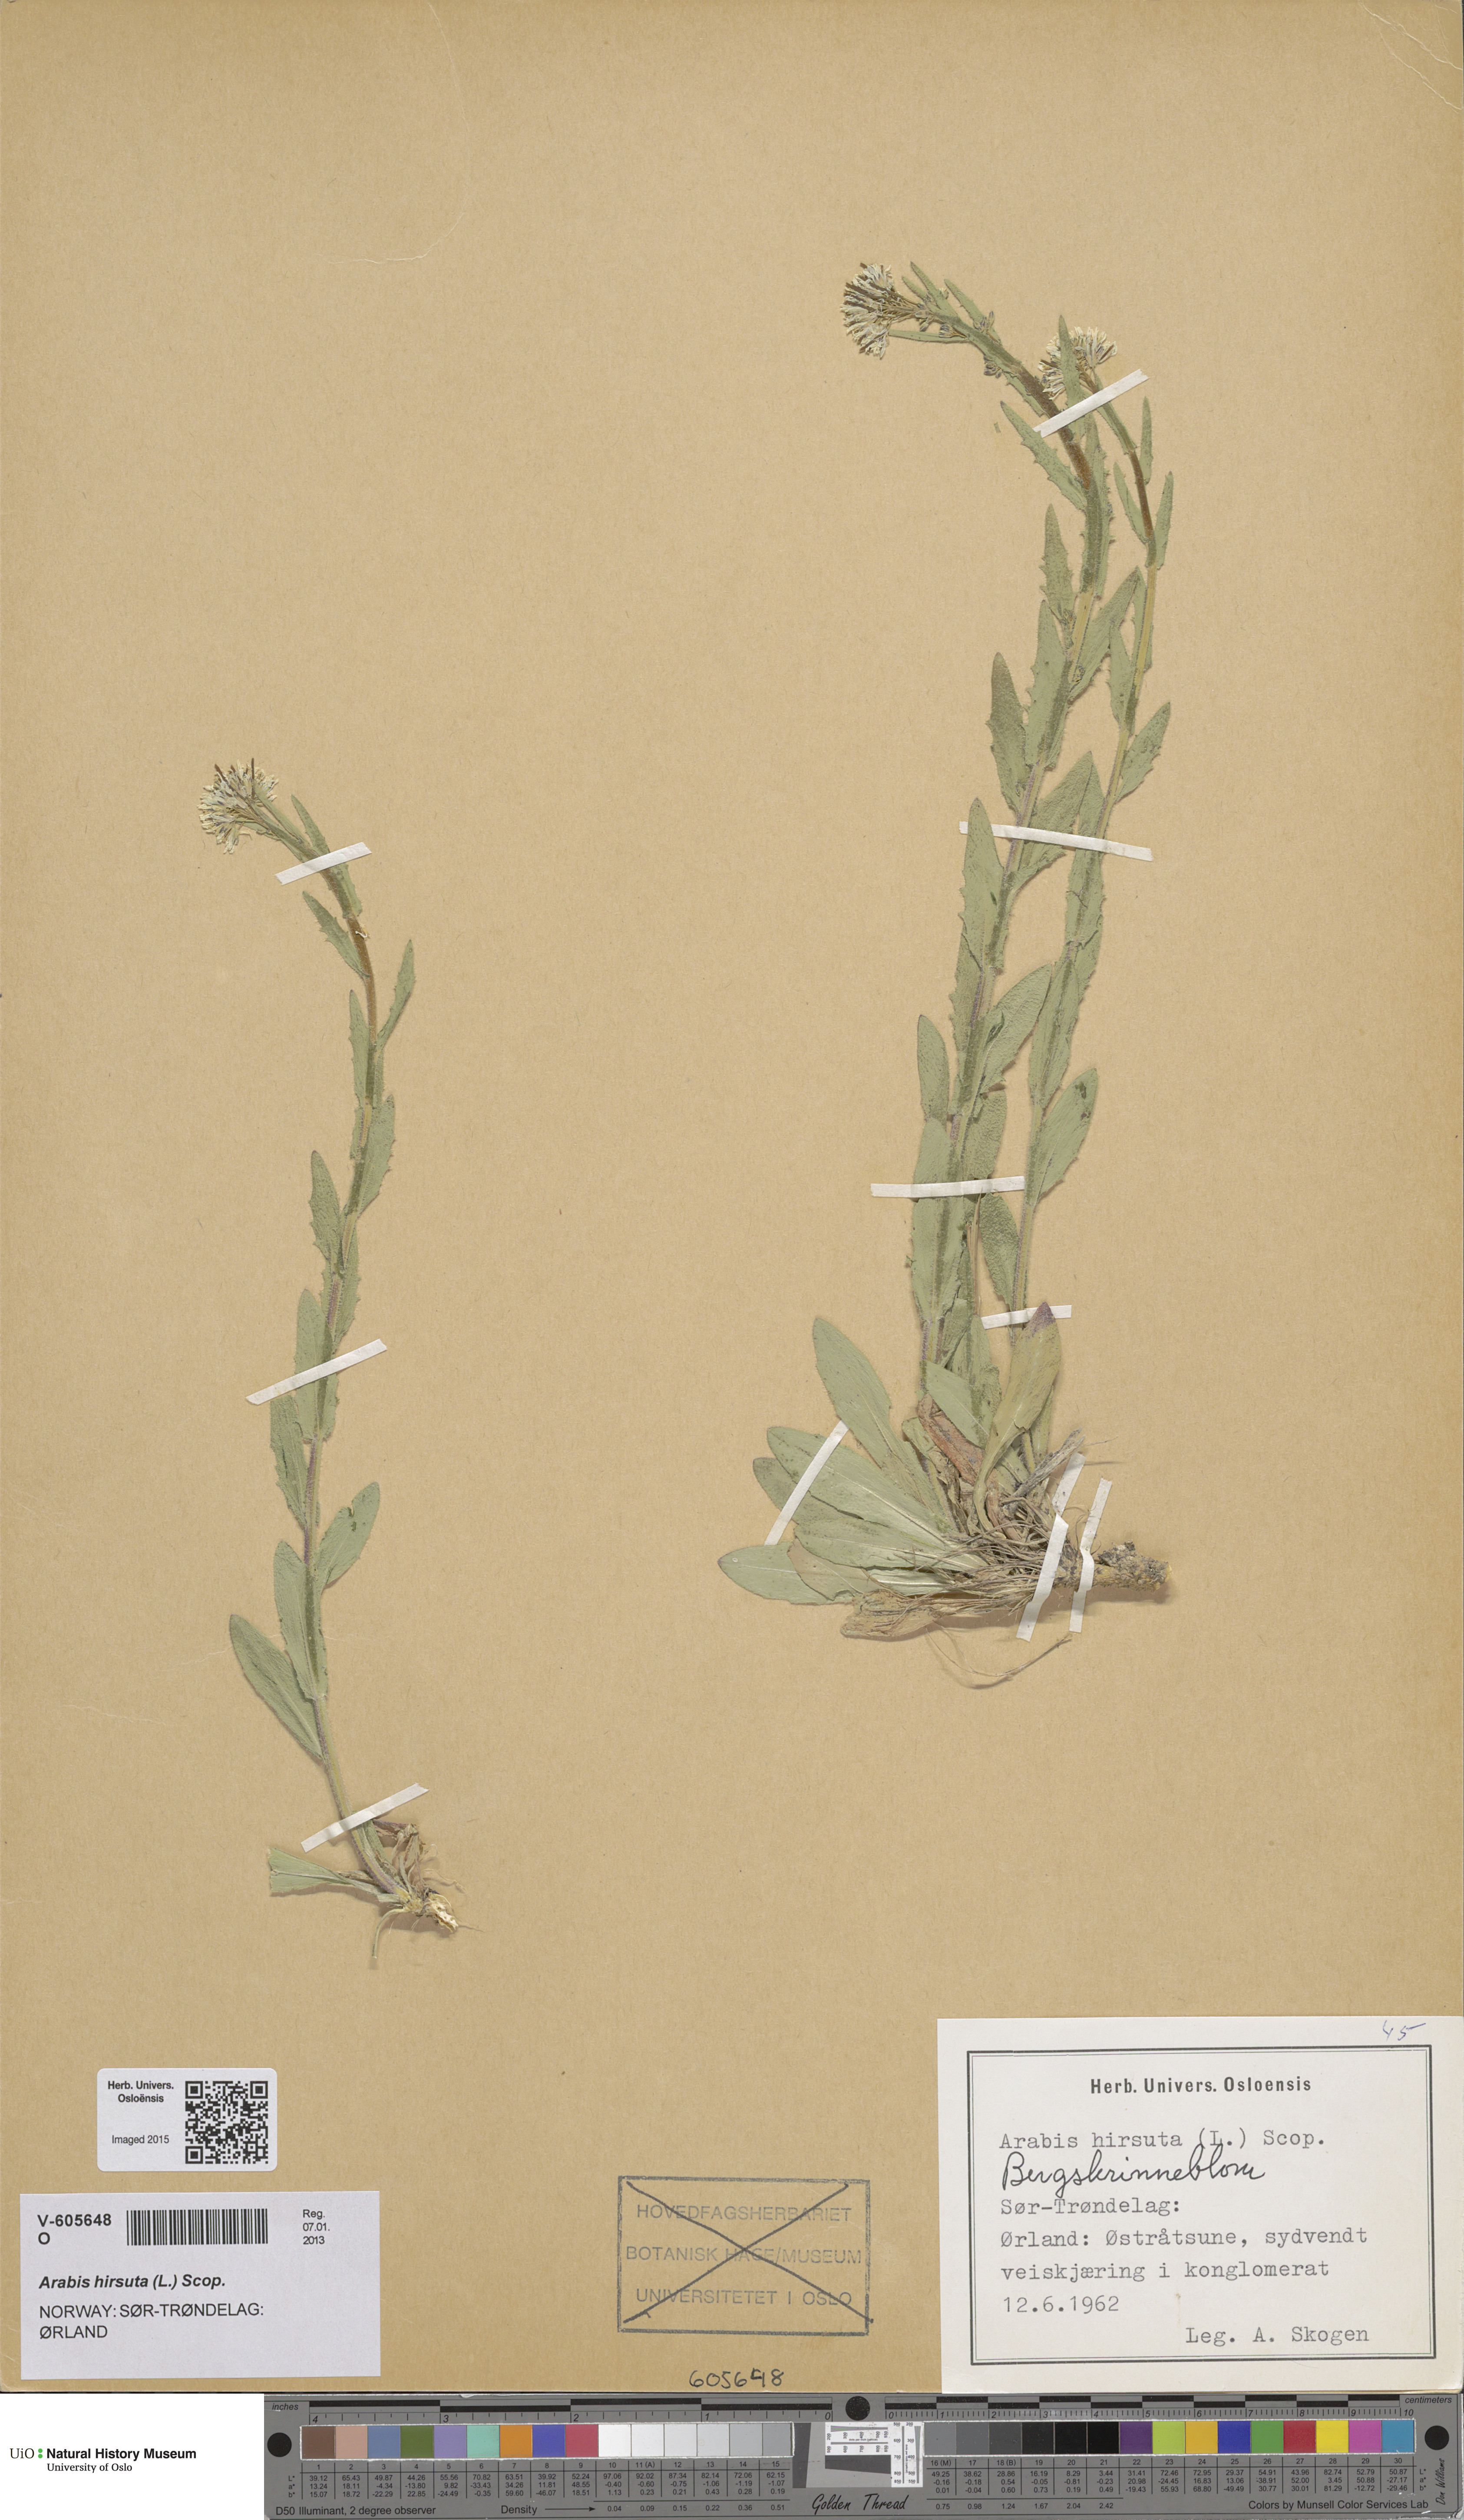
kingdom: Plantae
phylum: Tracheophyta
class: Magnoliopsida
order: Brassicales
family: Brassicaceae
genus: Arabis
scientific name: Arabis hirsuta
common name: Hairy rock-cress
